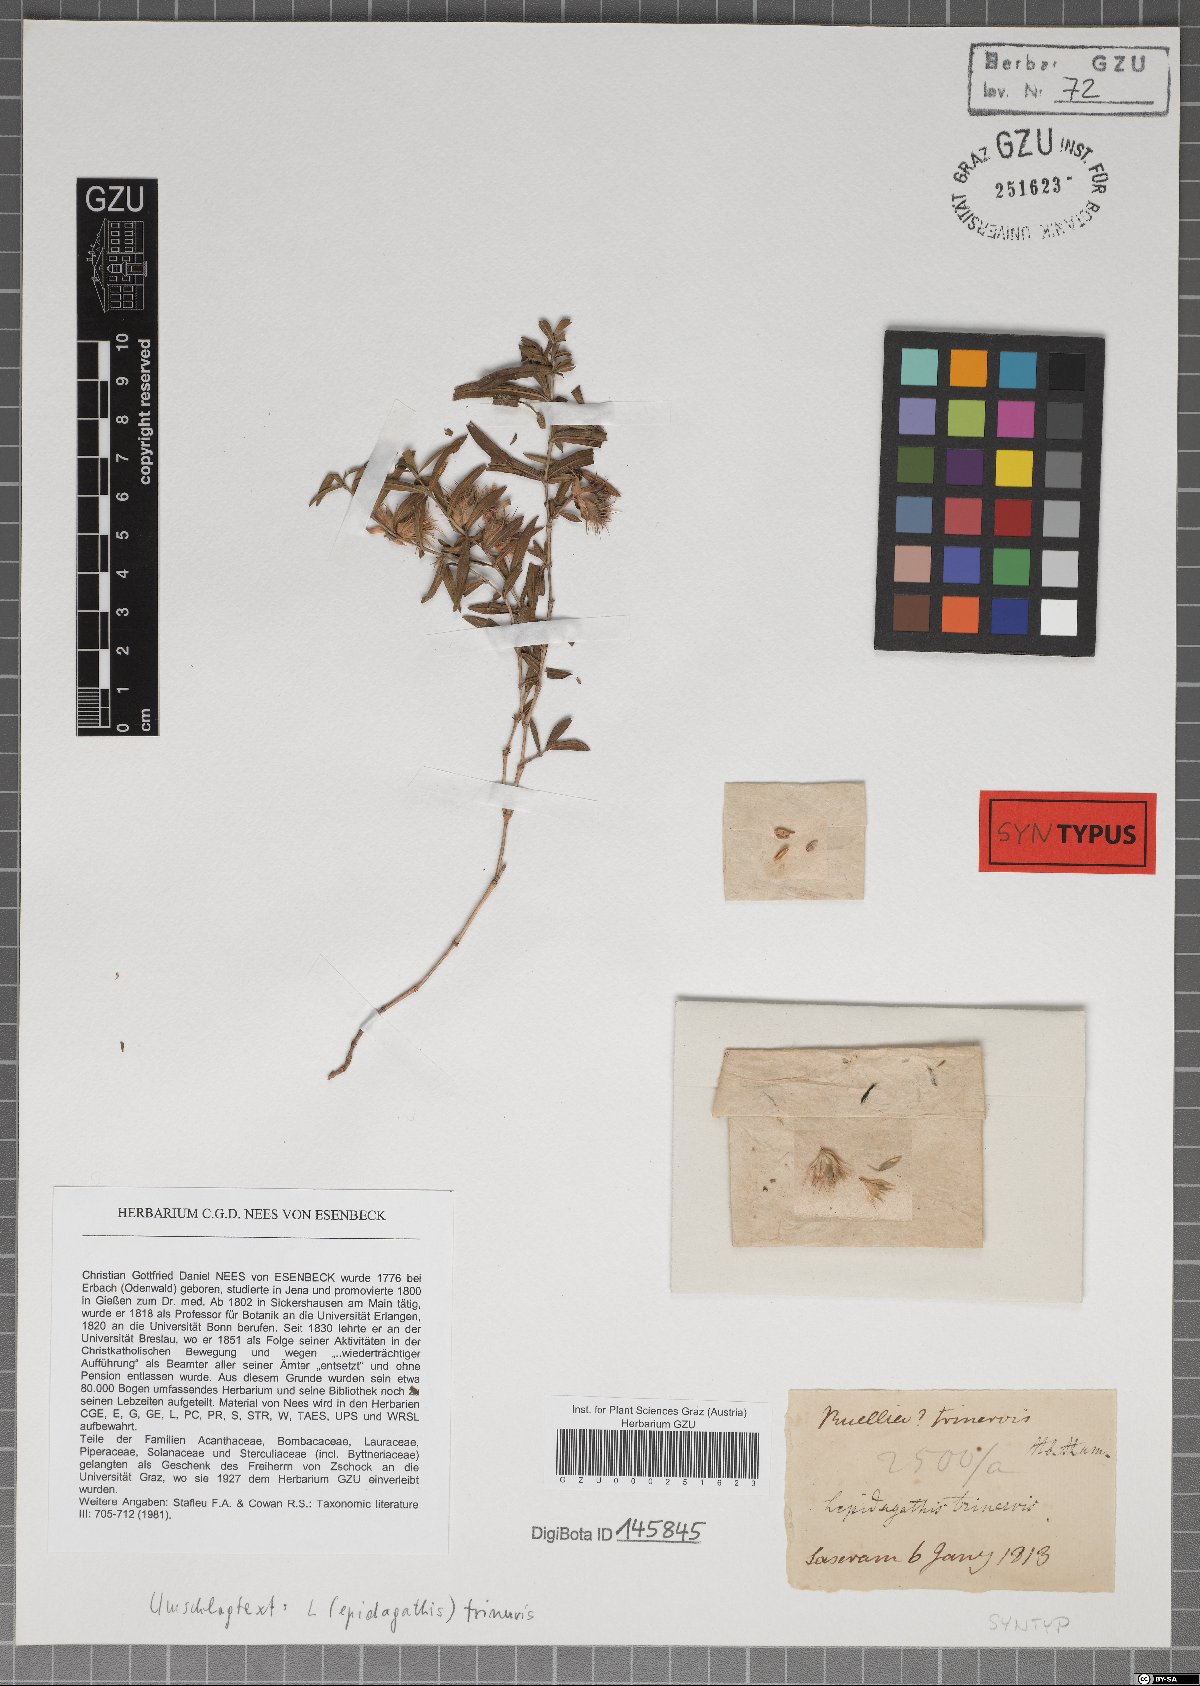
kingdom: Plantae
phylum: Tracheophyta
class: Magnoliopsida
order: Lamiales
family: Acanthaceae
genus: Lepidagathis
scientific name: Lepidagathis trinervis
